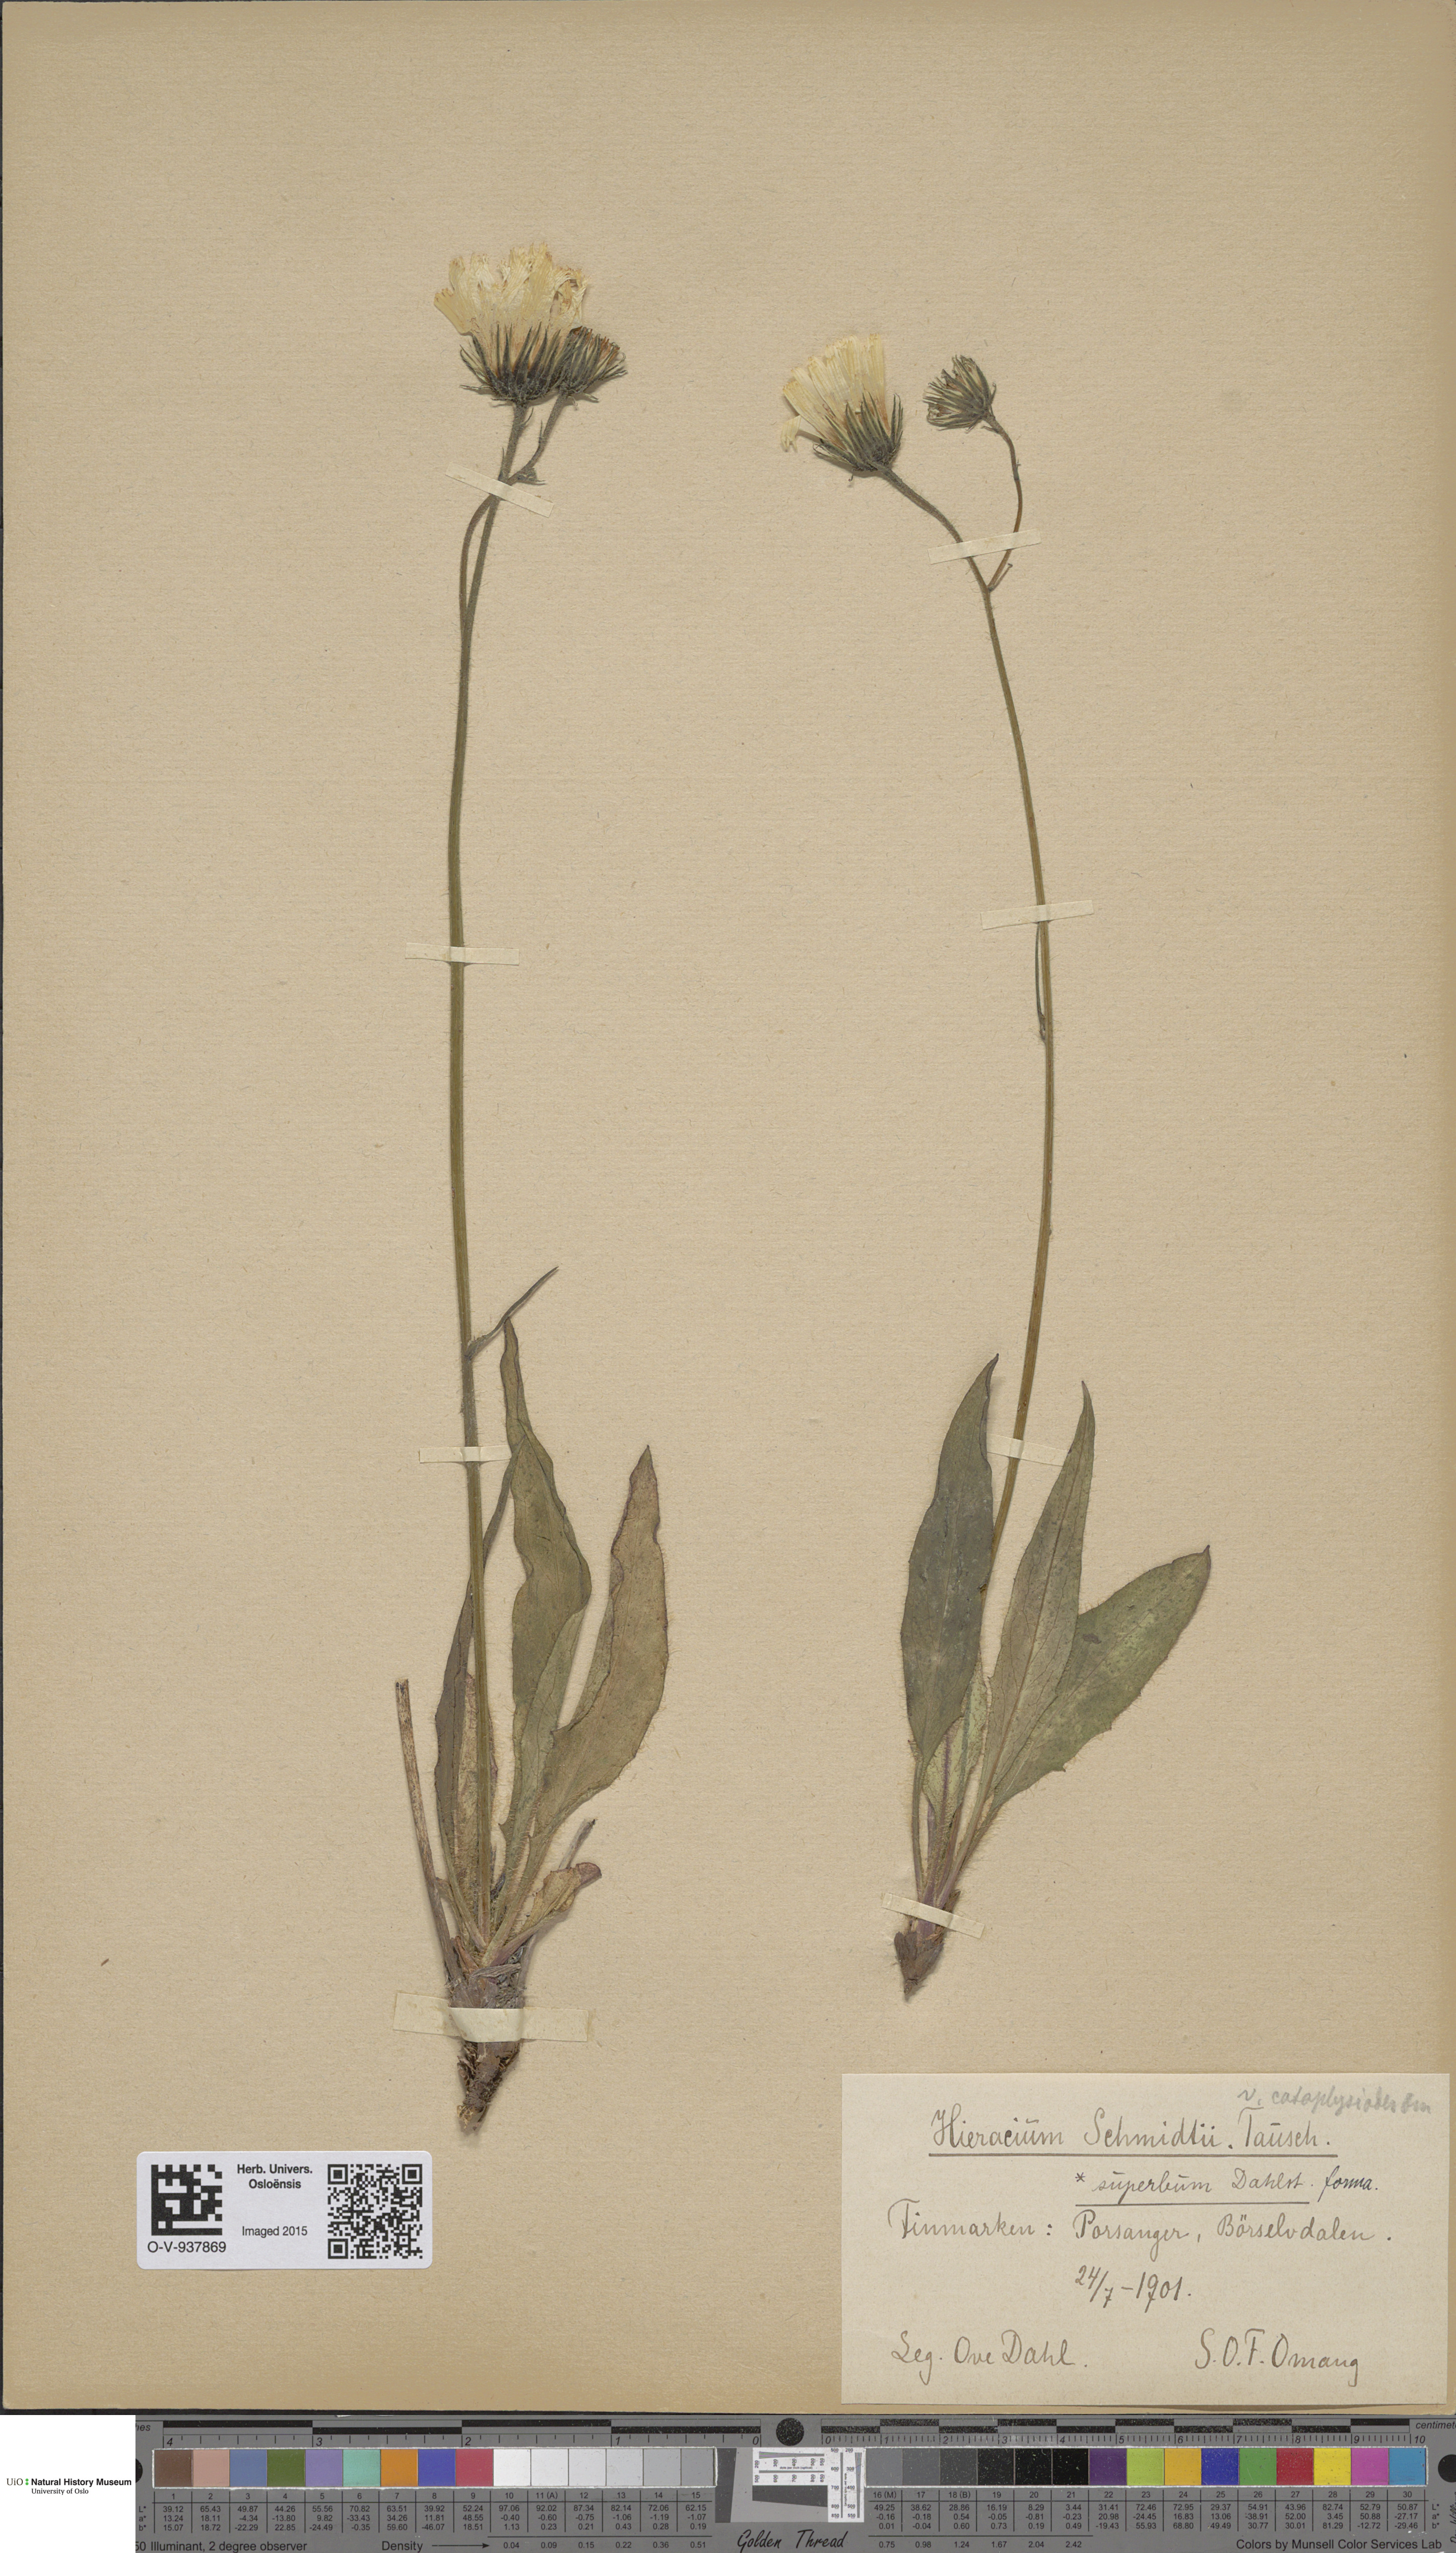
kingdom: Plantae
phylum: Tracheophyta
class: Magnoliopsida
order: Asterales
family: Asteraceae
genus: Hieracium
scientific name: Hieracium schmidtii
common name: Schmidt's hawkweed
